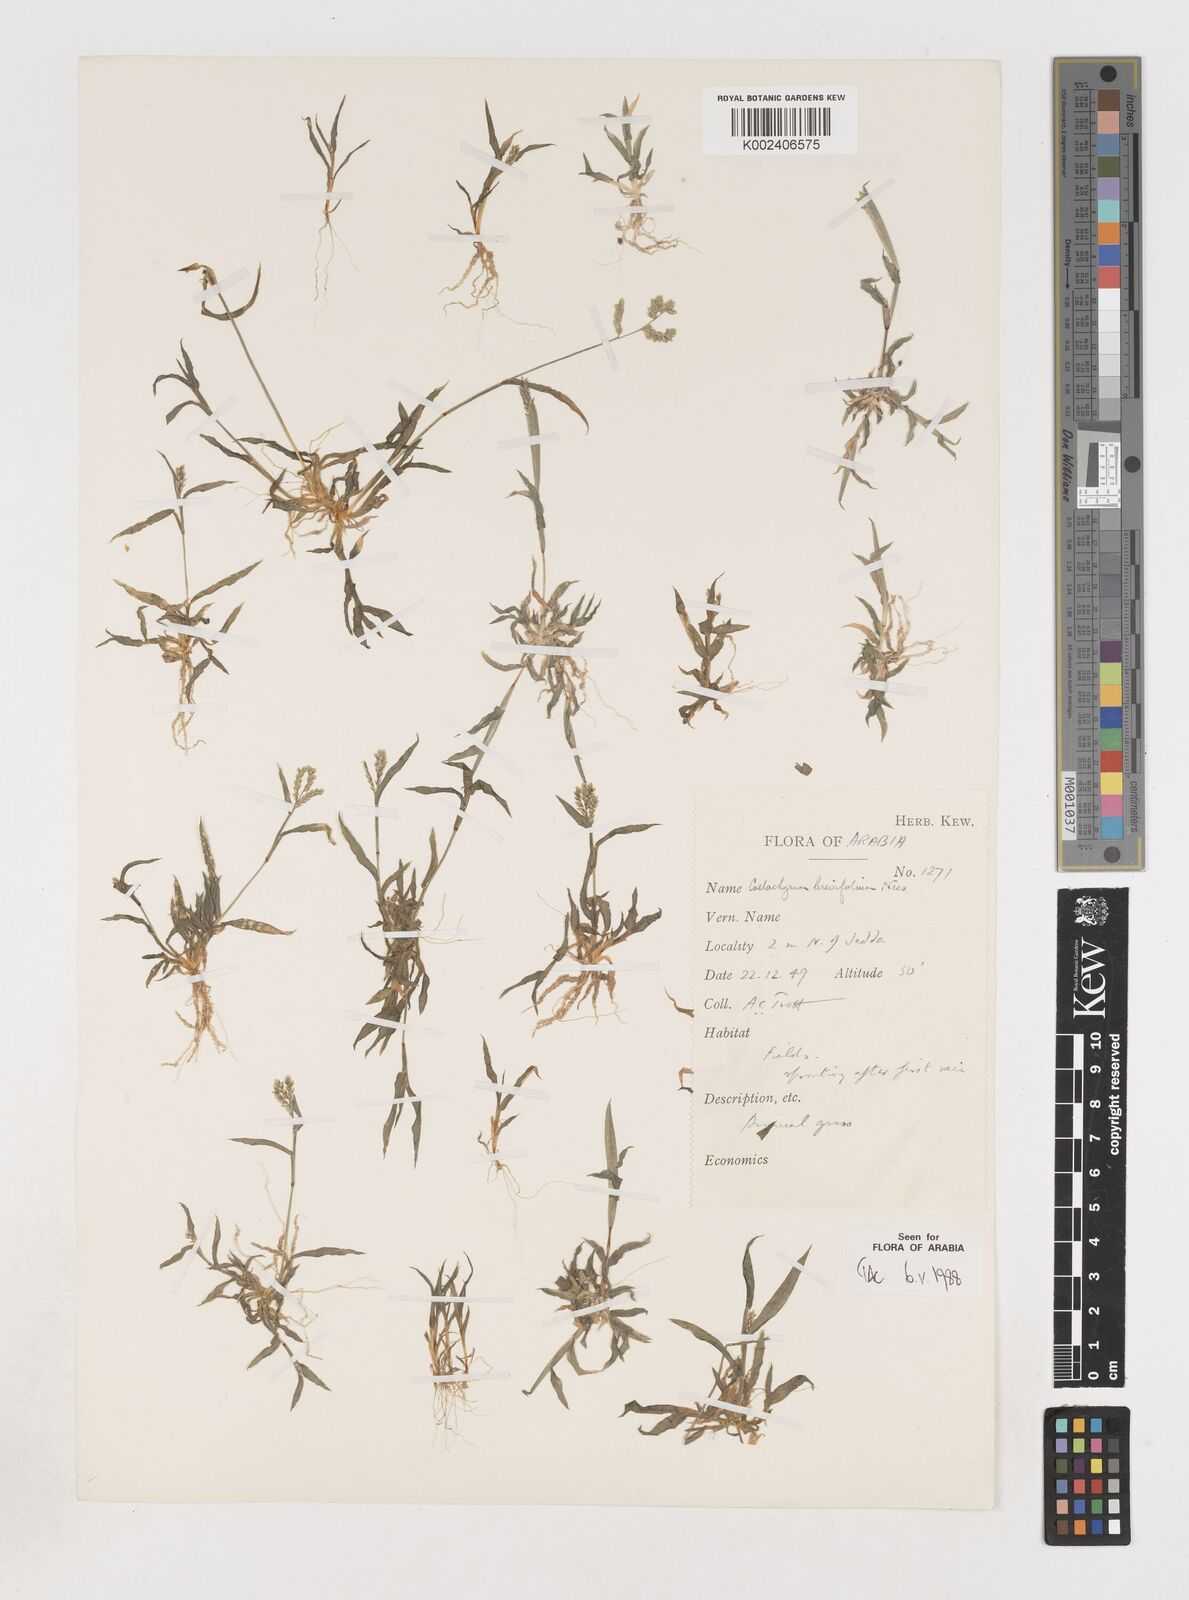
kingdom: Plantae
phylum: Tracheophyta
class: Liliopsida
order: Poales
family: Poaceae
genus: Coelachyrum
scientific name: Coelachyrum brevifolium
